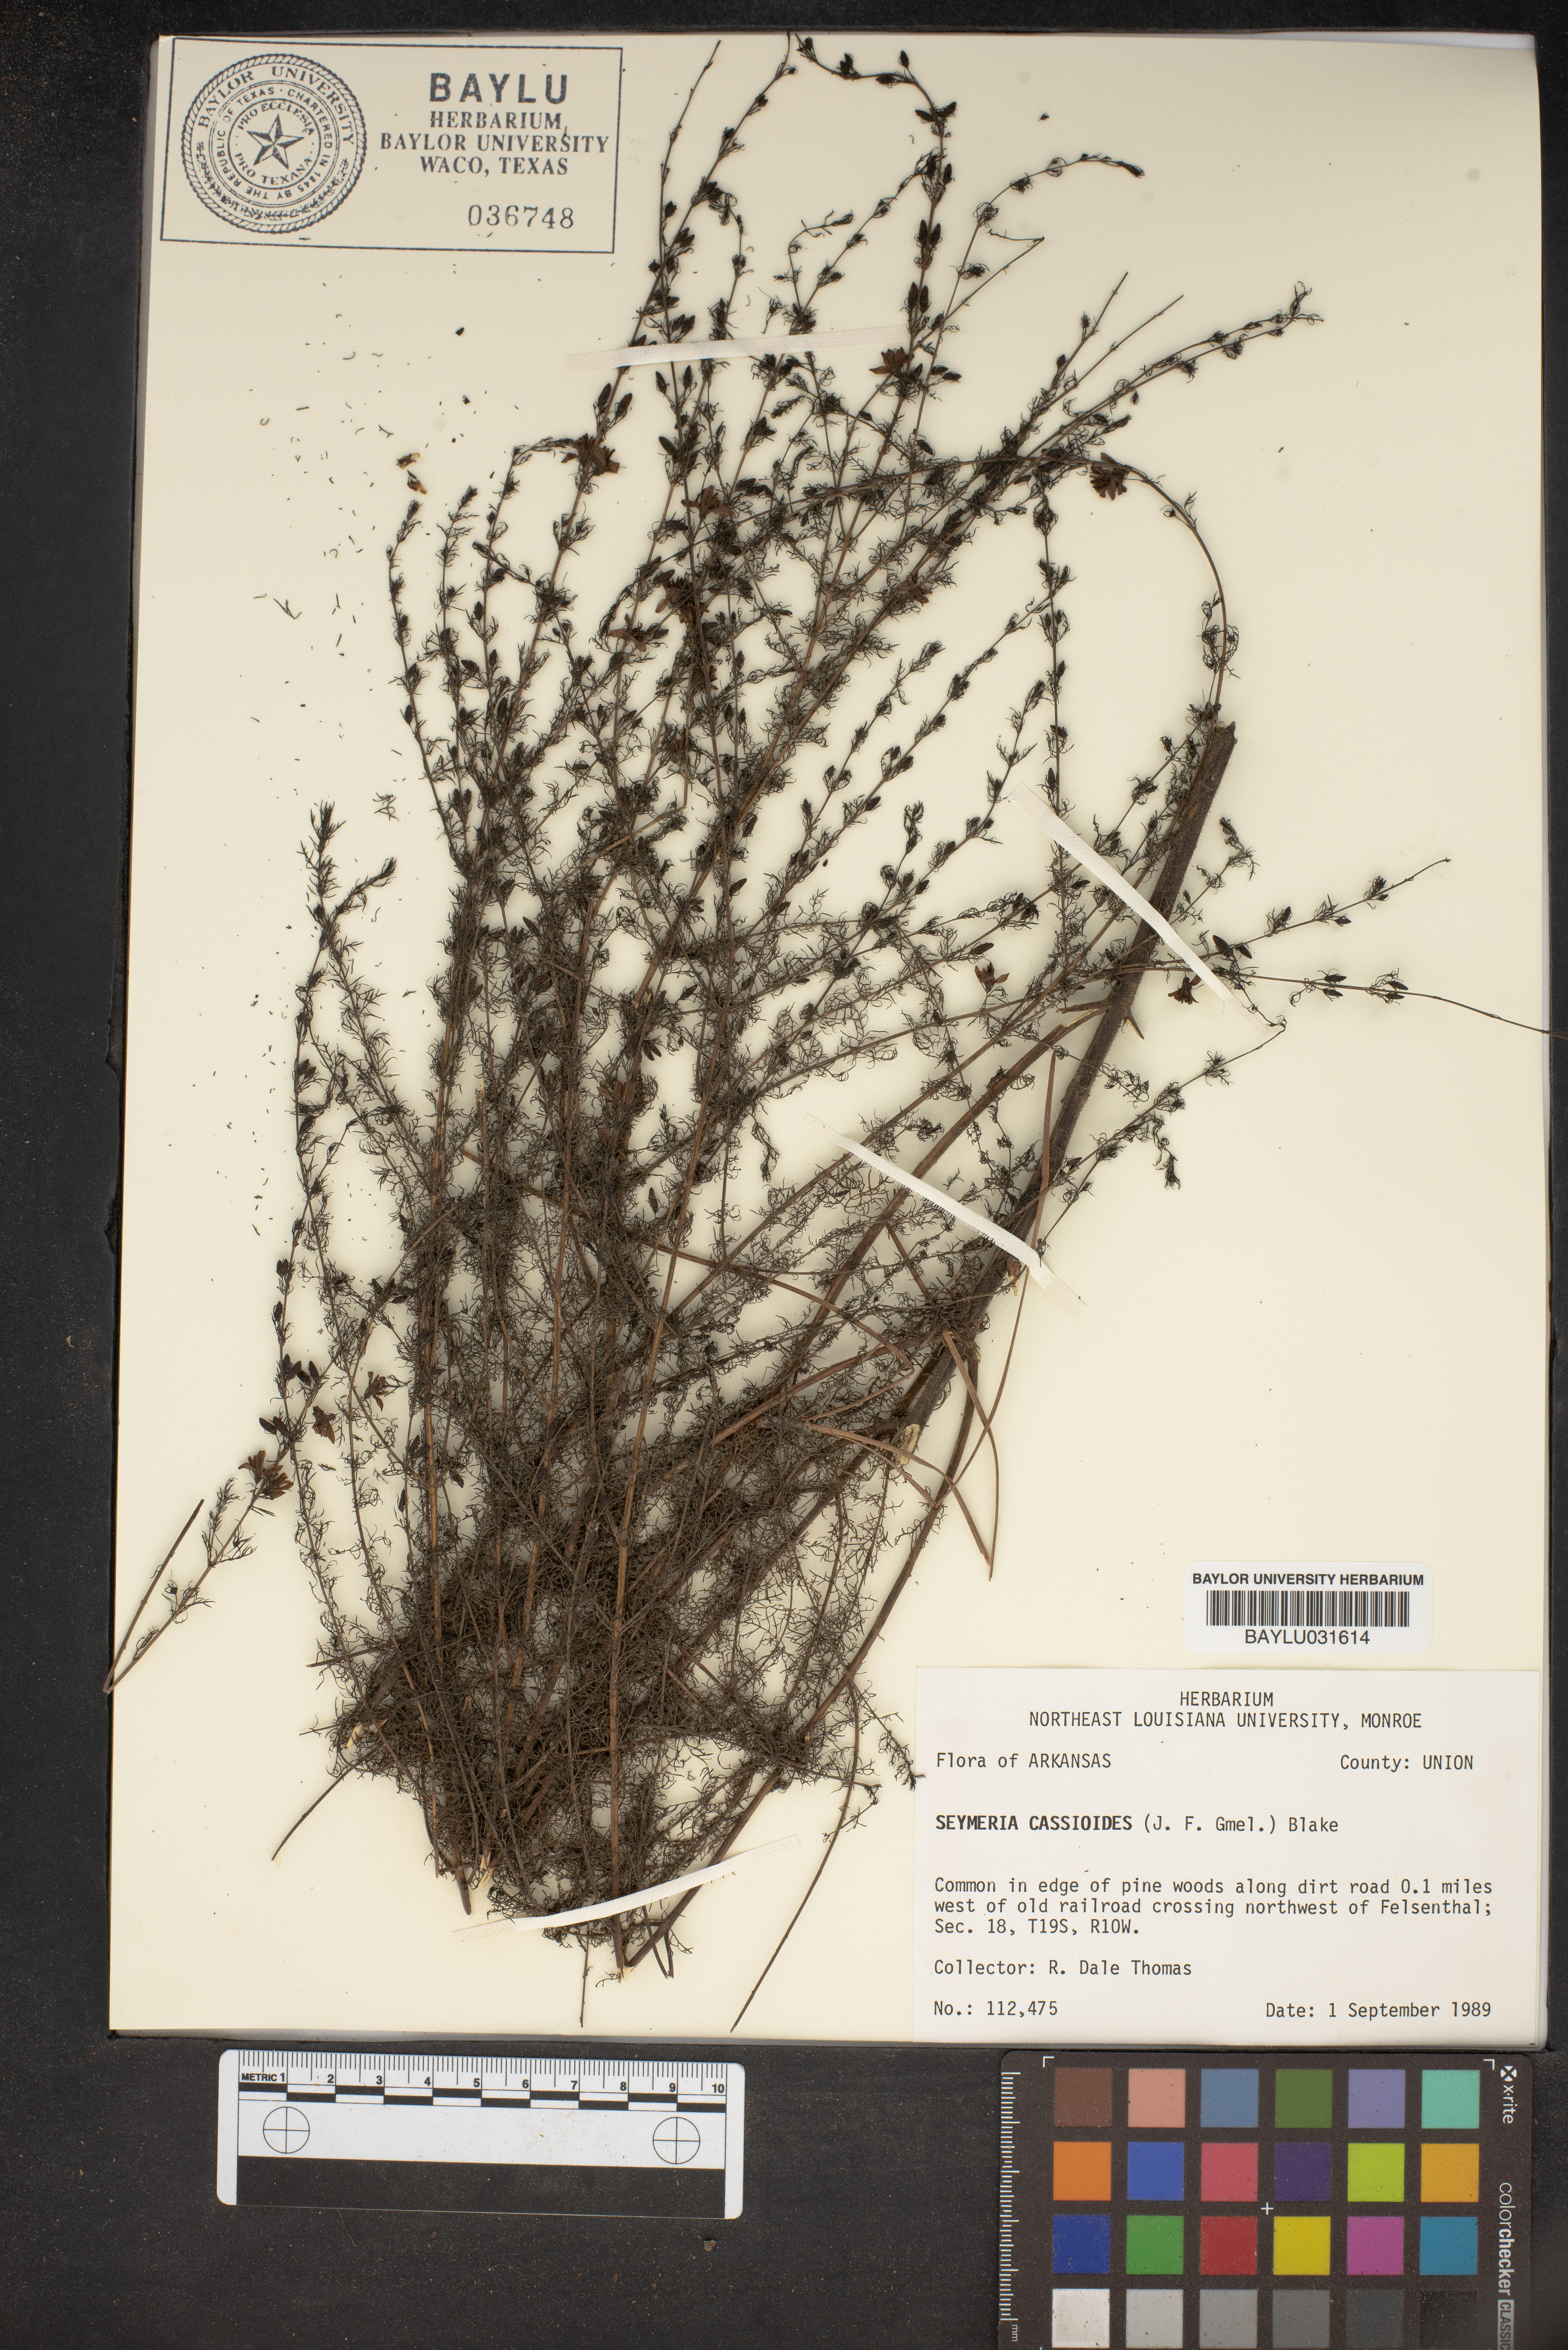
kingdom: Plantae
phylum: Tracheophyta
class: Magnoliopsida
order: Lamiales
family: Orobanchaceae
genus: Seymeria
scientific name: Seymeria cassioides
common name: Yaupon black-senna
